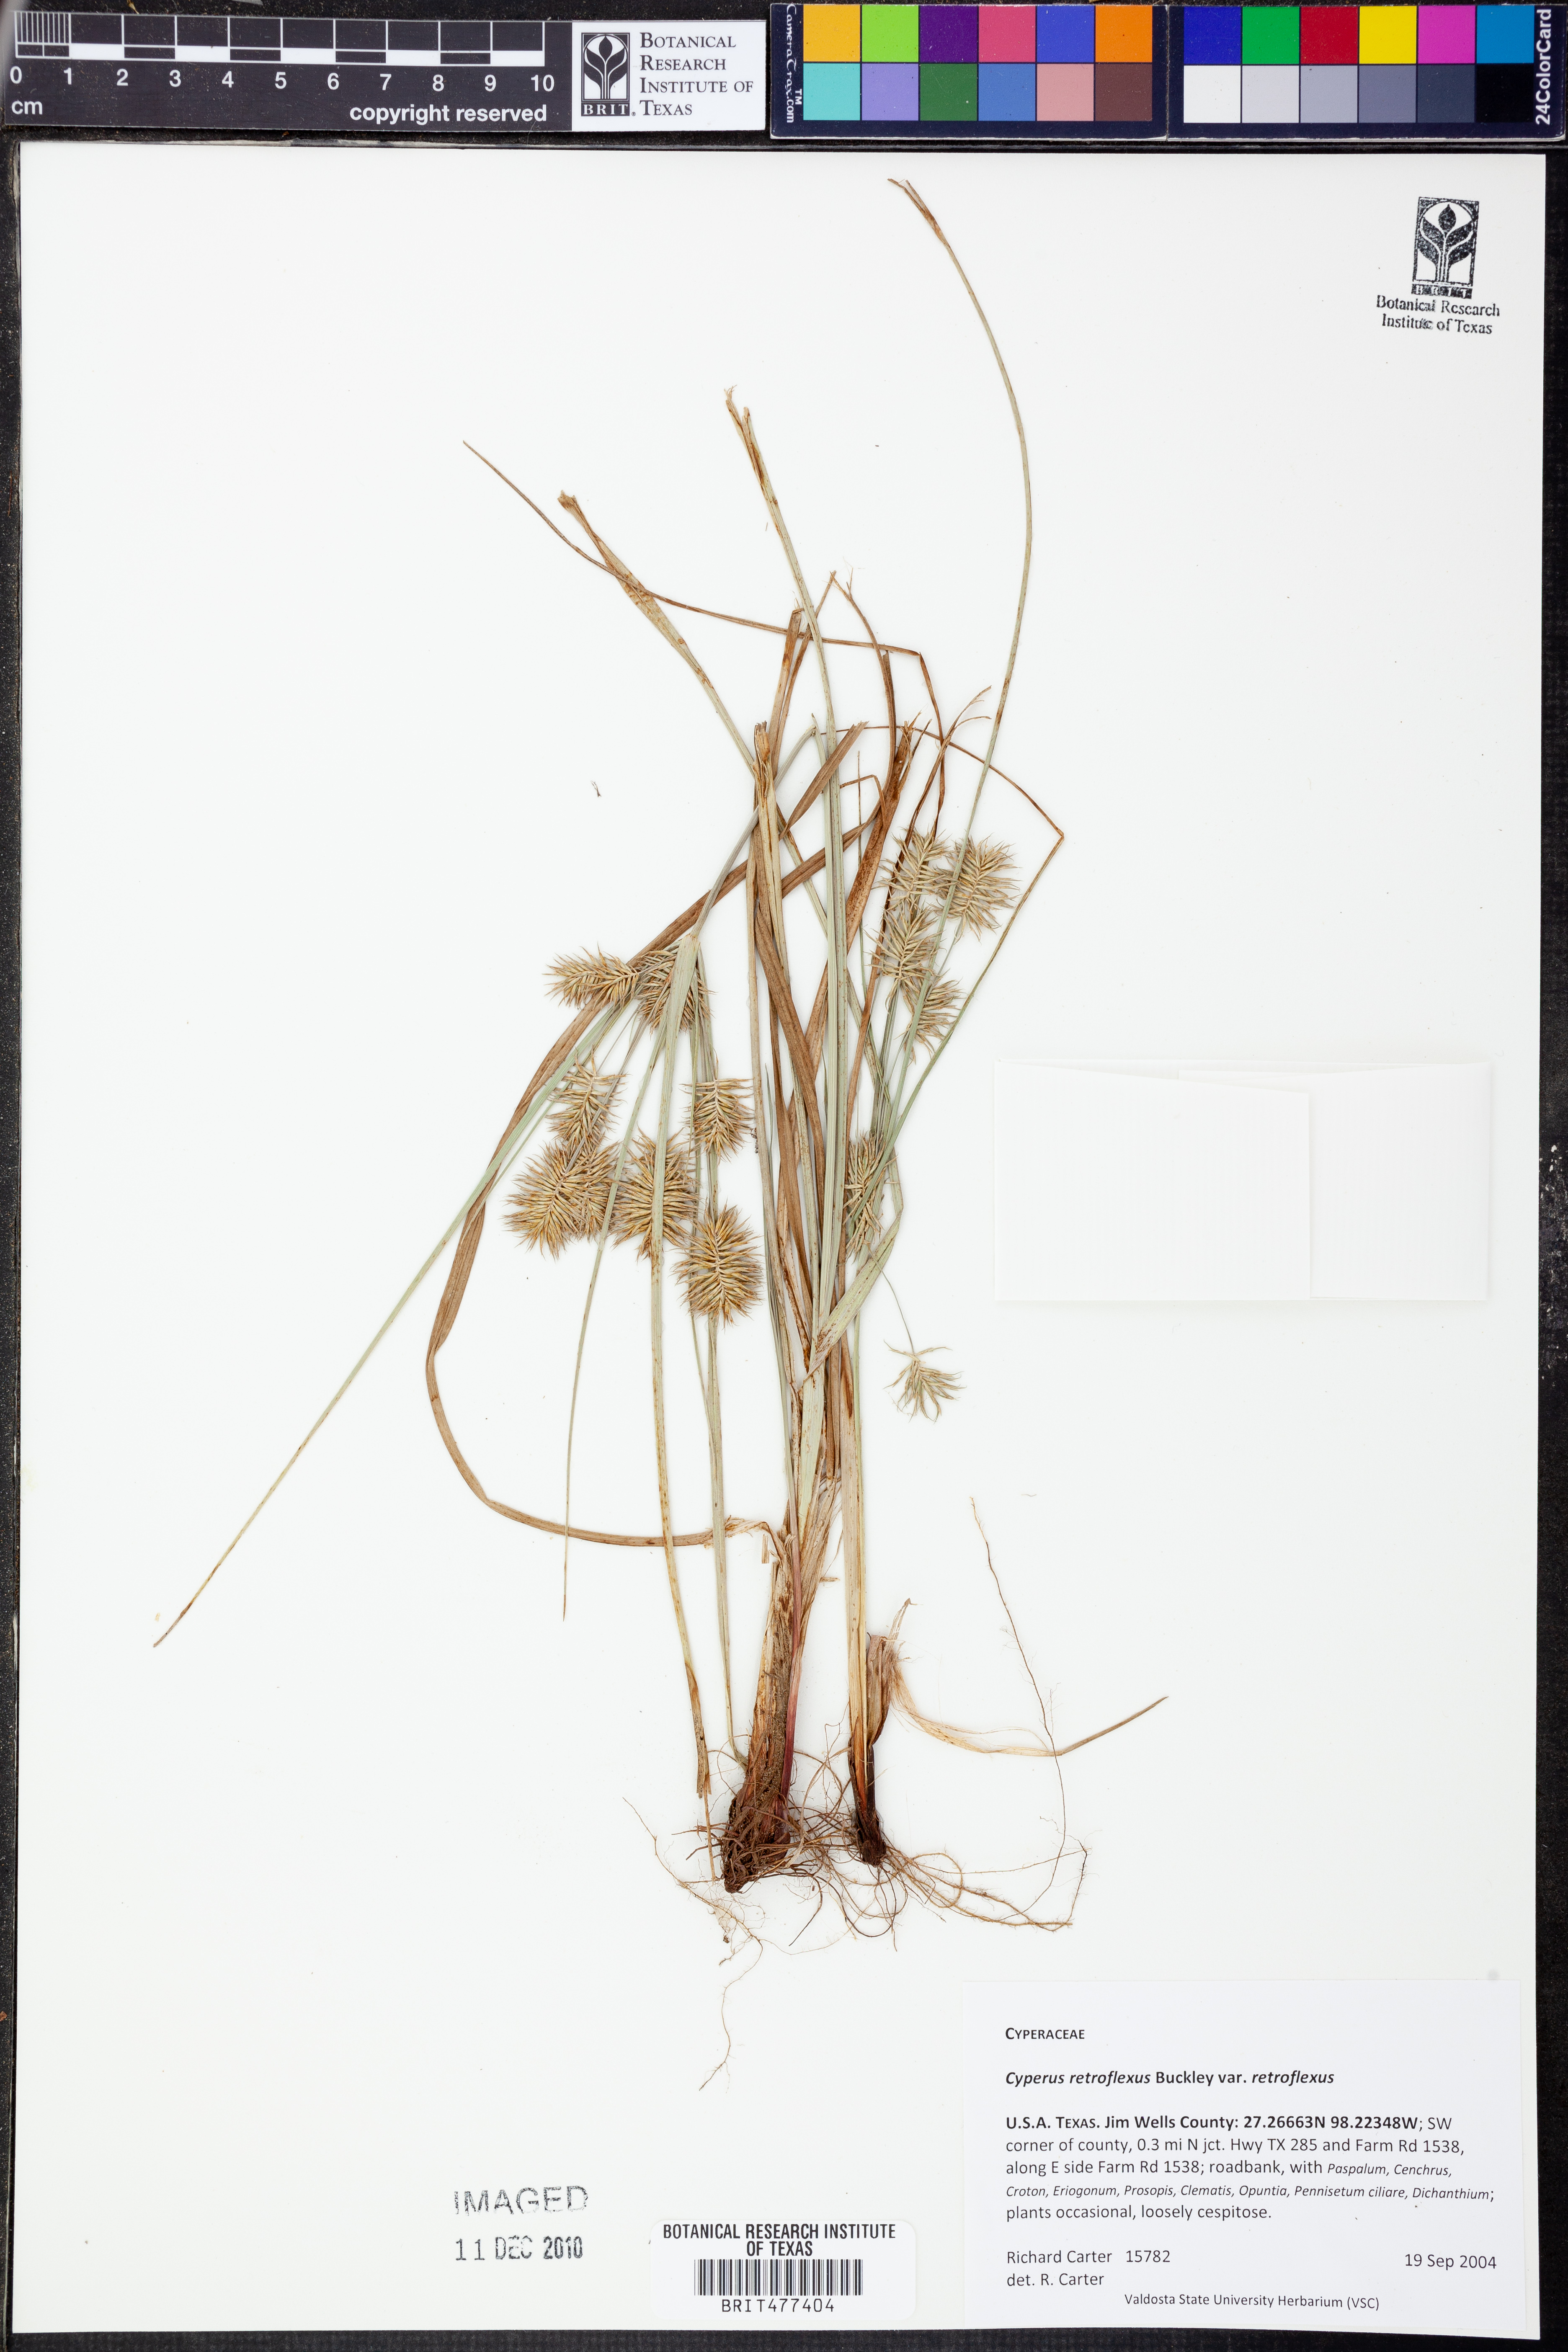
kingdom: Plantae
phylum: Tracheophyta
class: Liliopsida
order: Poales
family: Cyperaceae
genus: Cyperus
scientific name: Cyperus retroflexus
